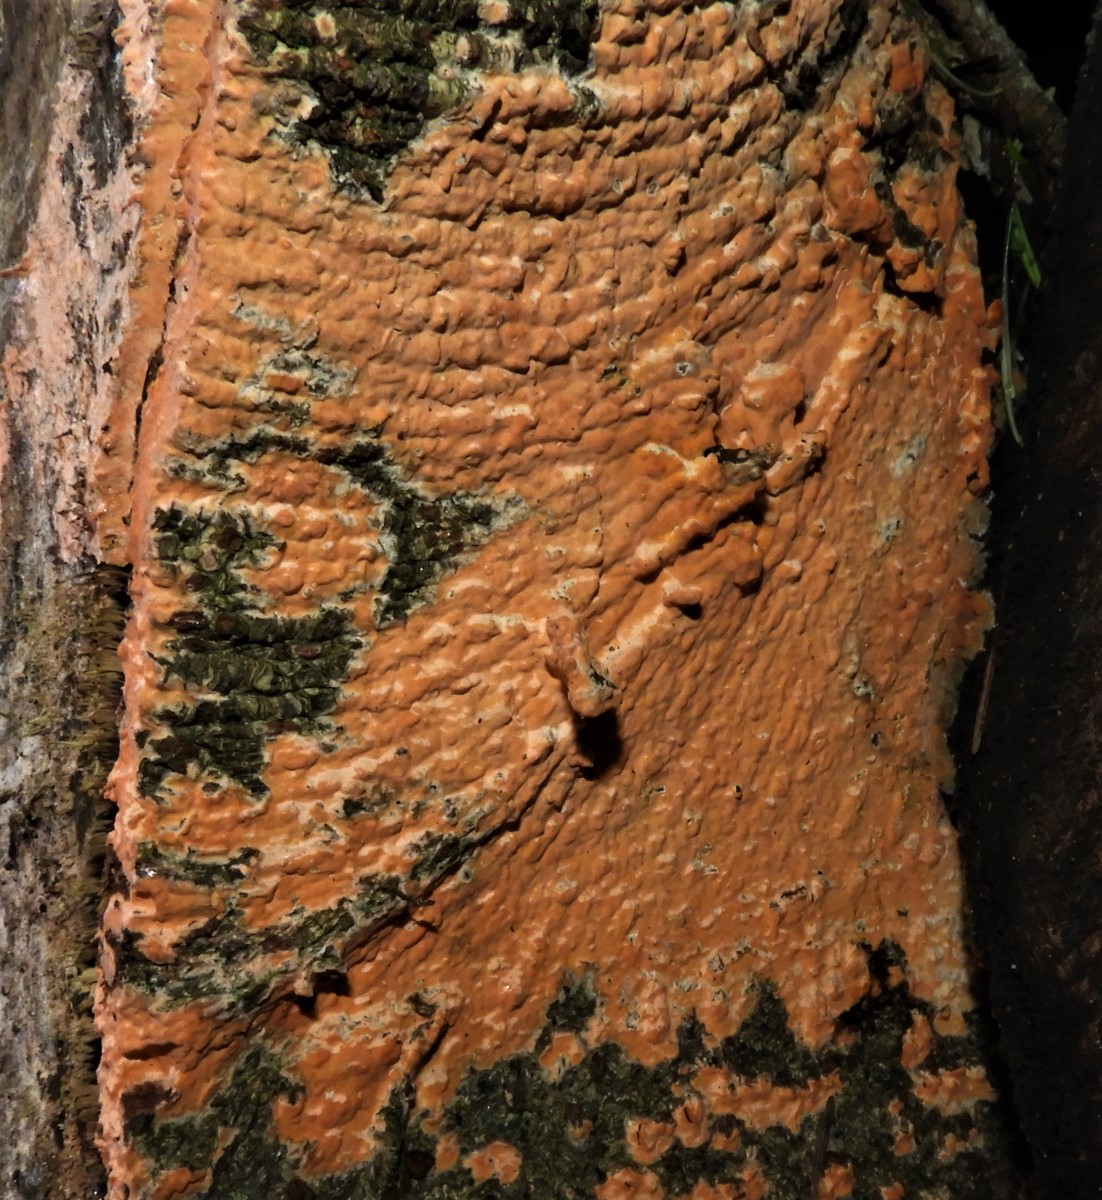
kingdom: Fungi
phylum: Basidiomycota
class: Agaricomycetes
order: Russulales
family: Peniophoraceae
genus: Peniophora
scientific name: Peniophora incarnata
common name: laksefarvet voksskind
